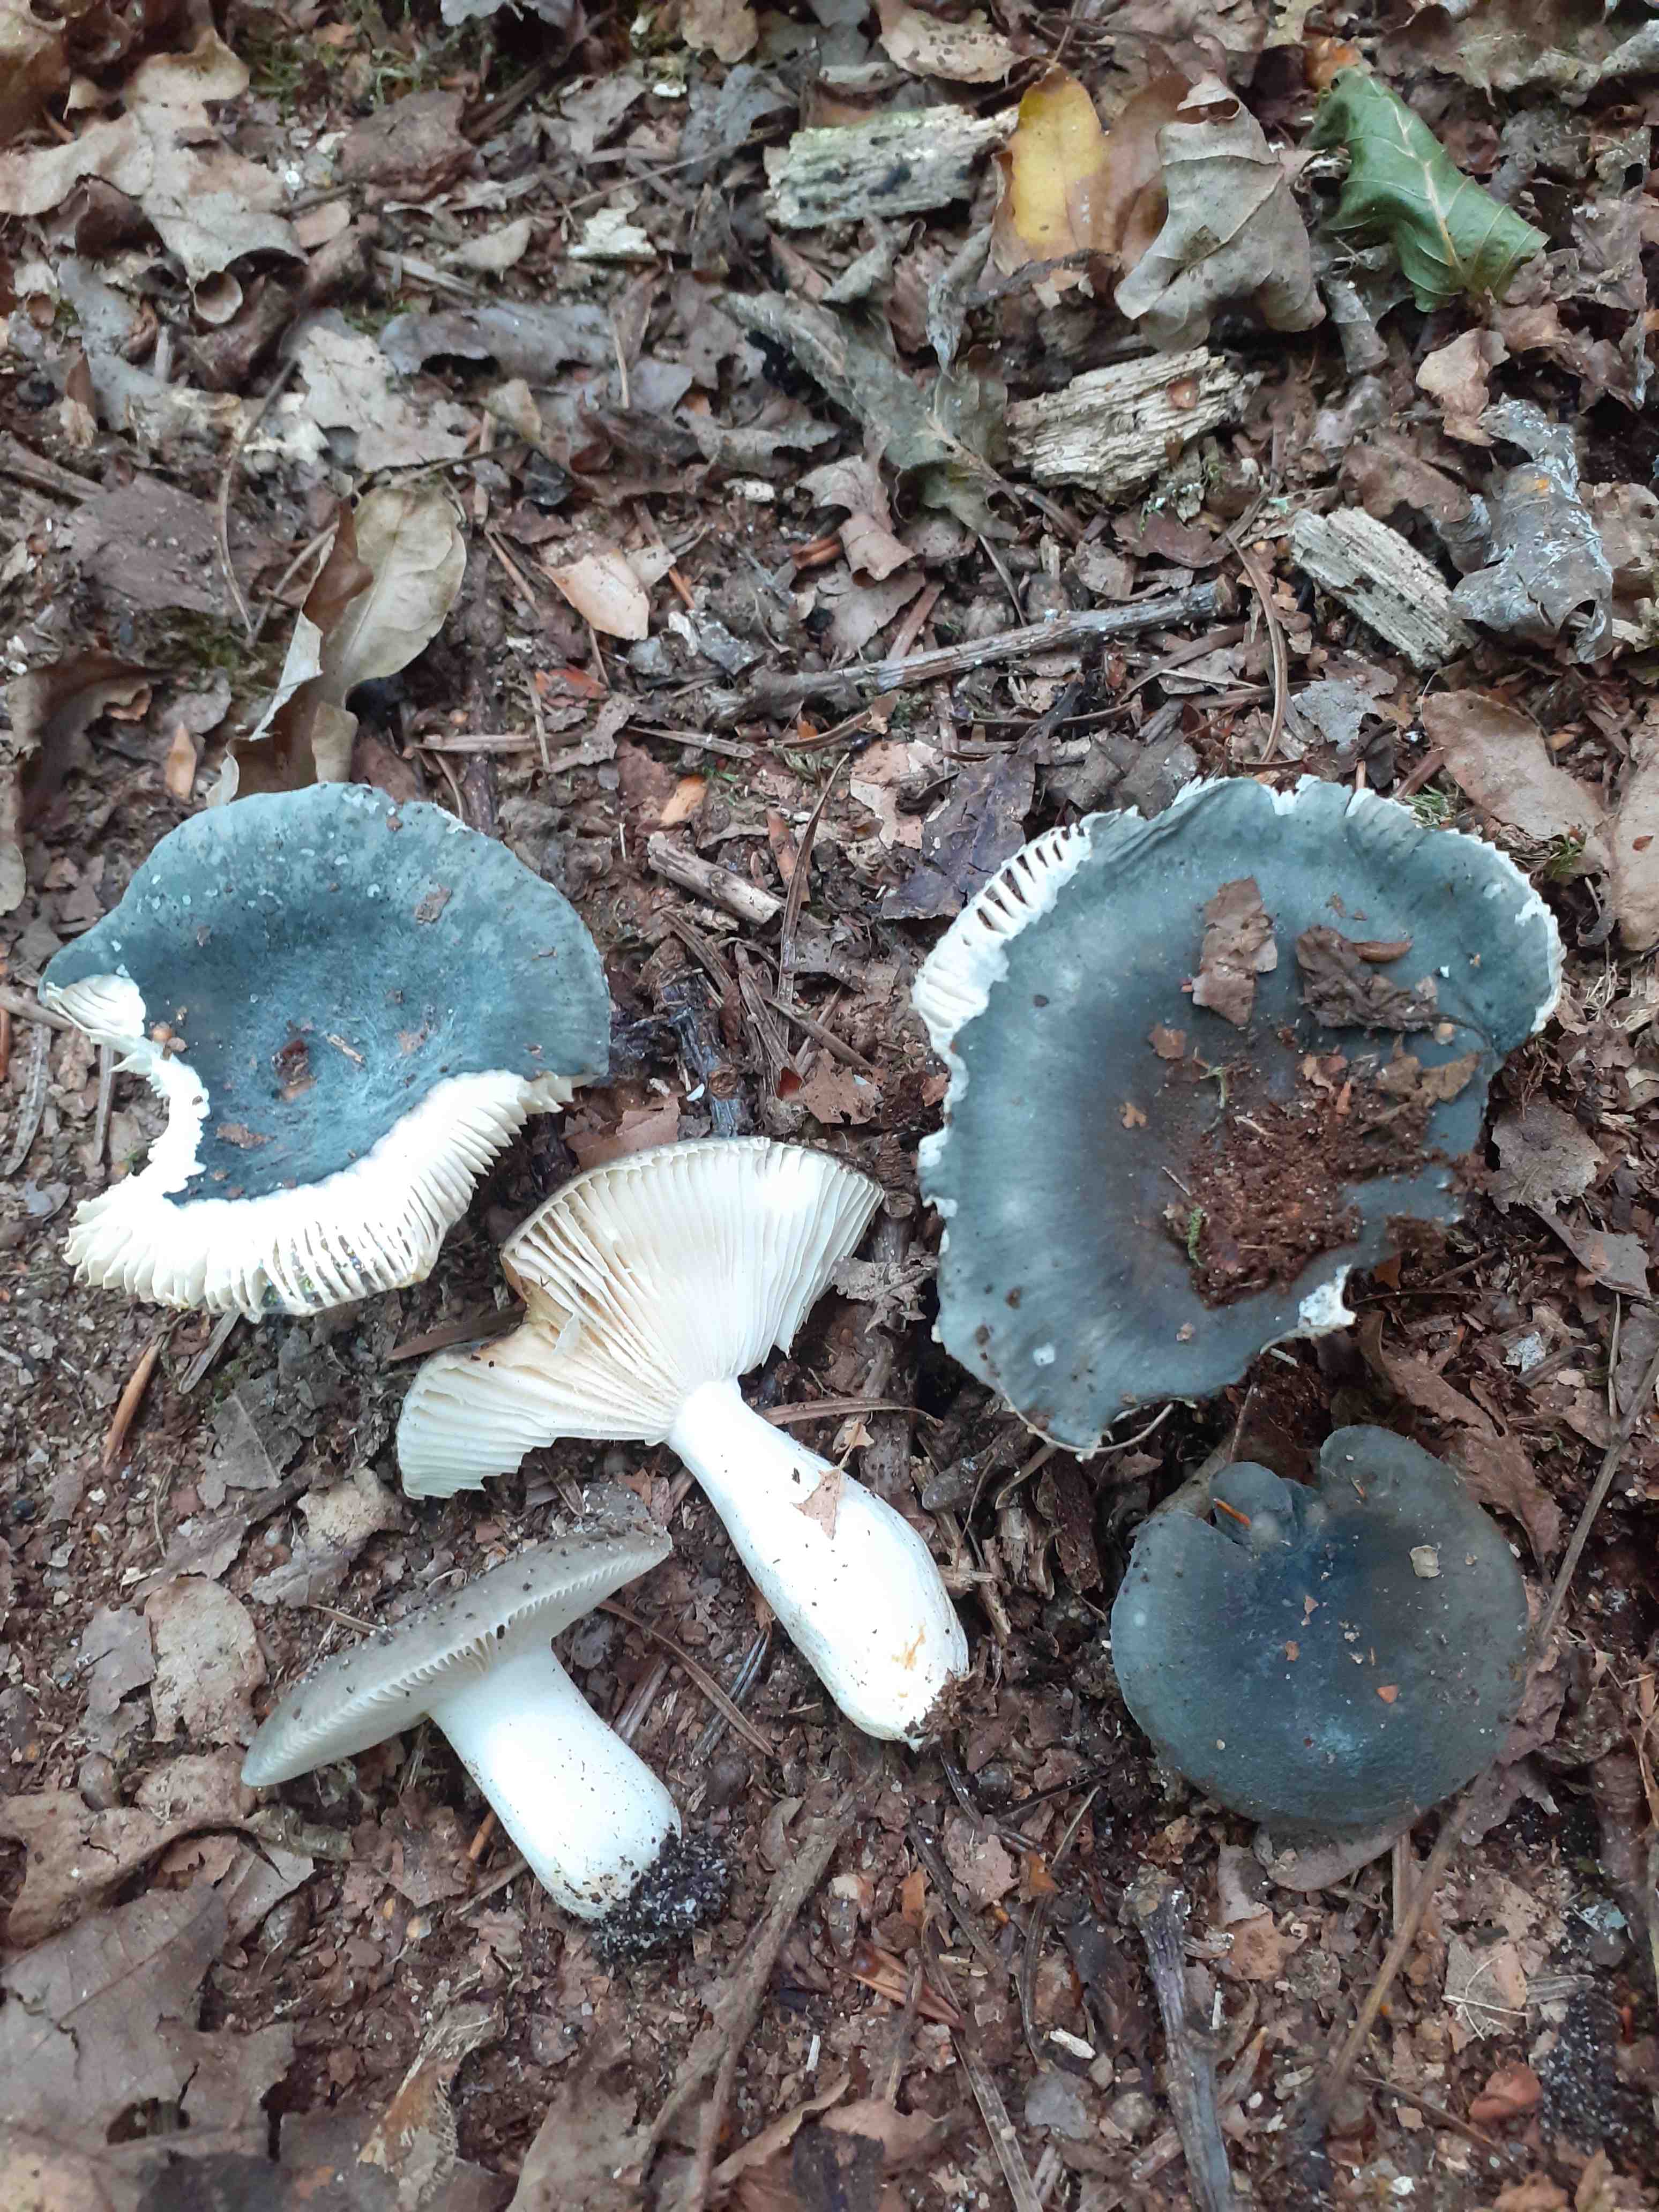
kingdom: Fungi
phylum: Basidiomycota
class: Agaricomycetes
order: Russulales
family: Russulaceae
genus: Russula
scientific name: Russula parazurea
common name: blågrå skørhat
